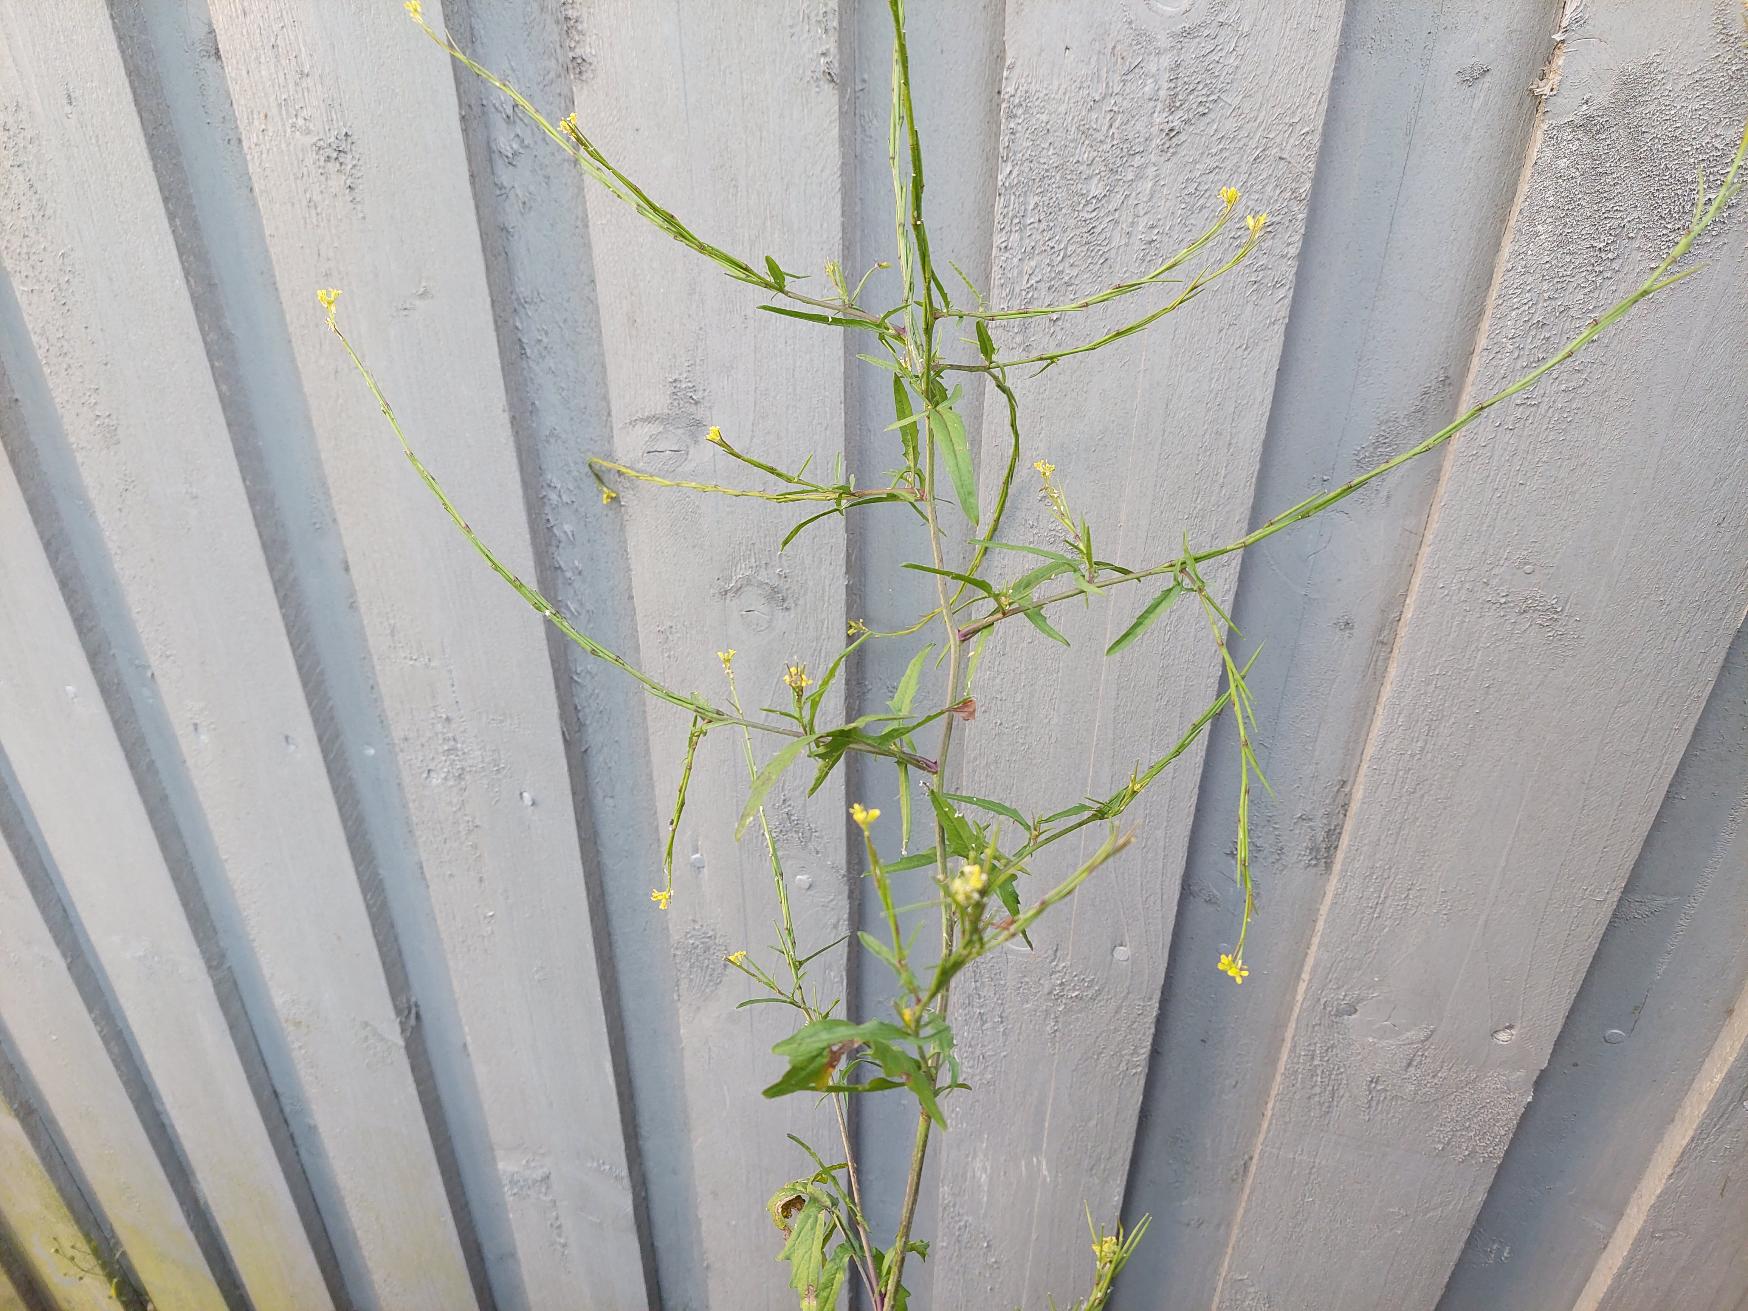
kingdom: Plantae
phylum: Tracheophyta
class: Magnoliopsida
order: Brassicales
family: Brassicaceae
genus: Sisymbrium
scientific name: Sisymbrium officinale
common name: Rank vejsennep
